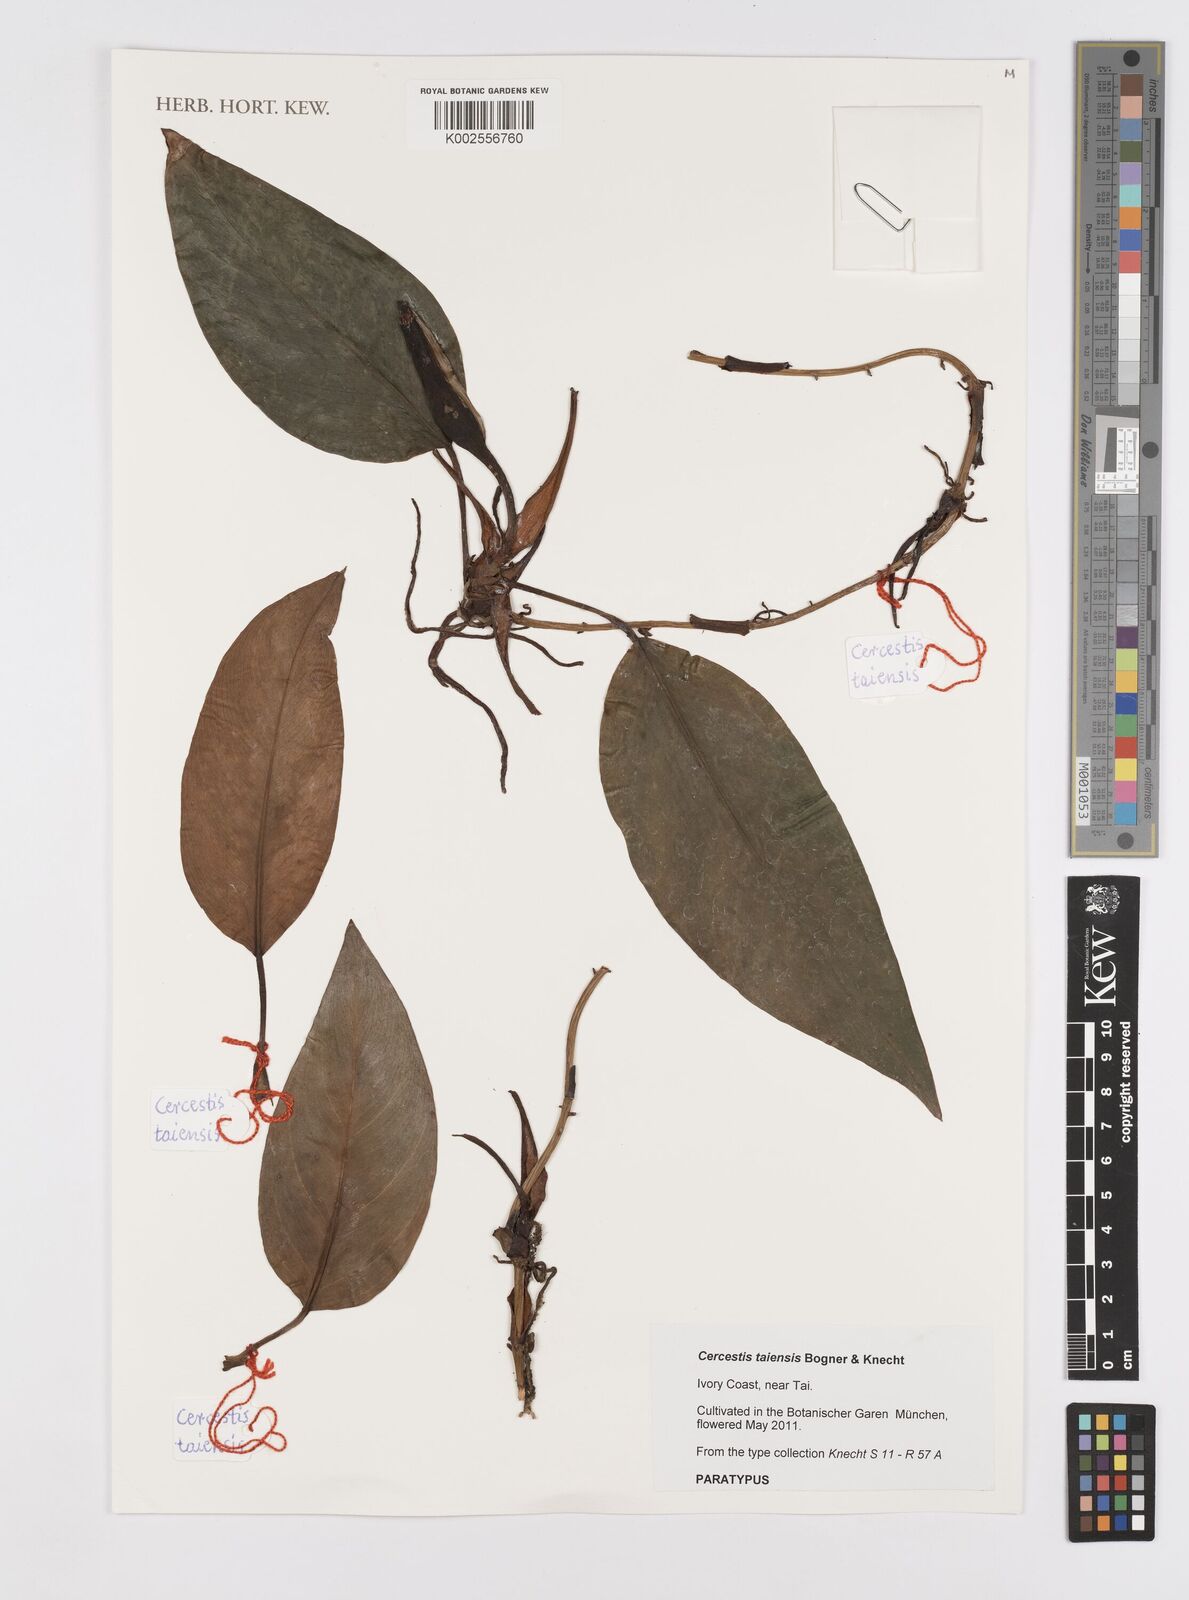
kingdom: Plantae
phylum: Tracheophyta
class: Liliopsida
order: Alismatales
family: Araceae
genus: Cercestis
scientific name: Cercestis taiensis
